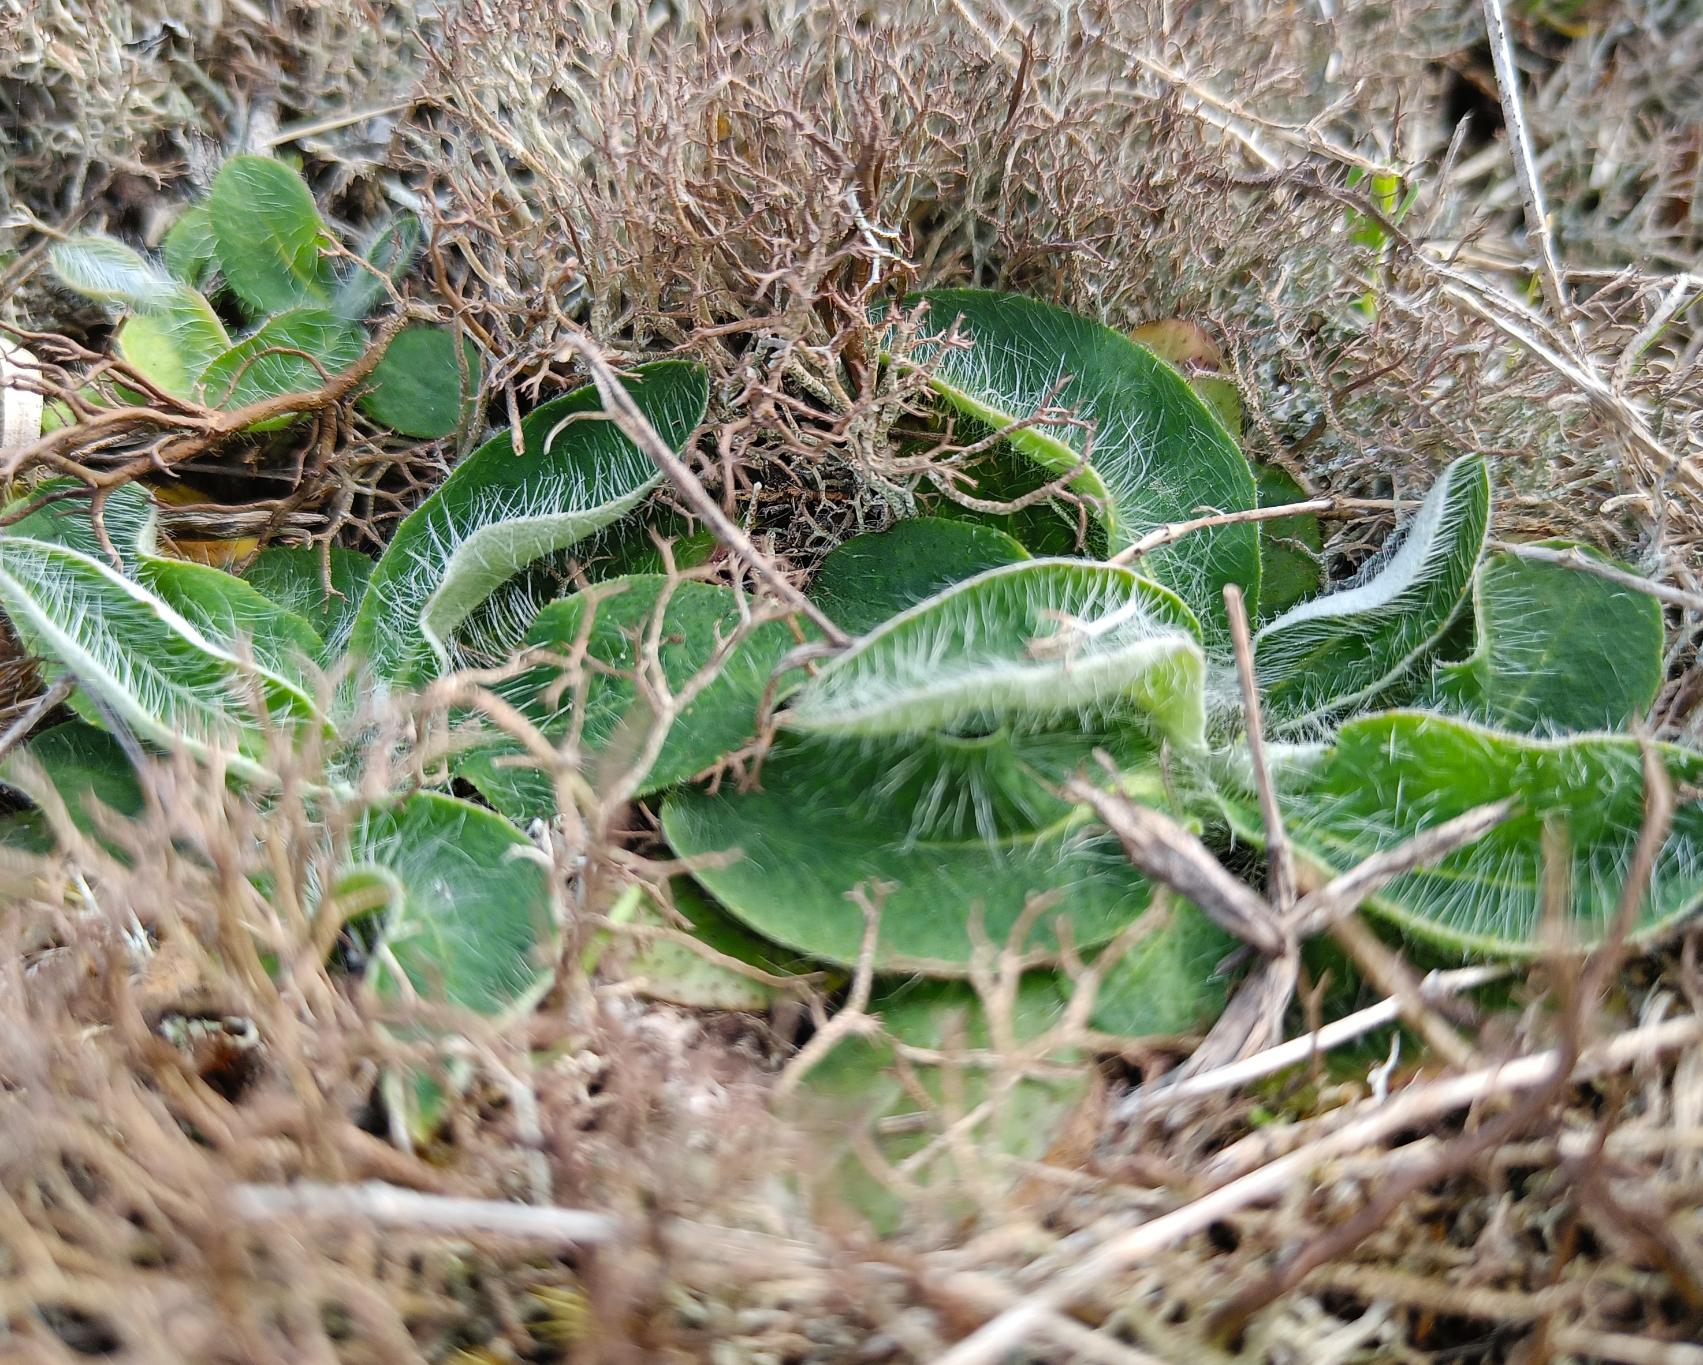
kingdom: Plantae
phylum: Tracheophyta
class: Magnoliopsida
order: Asterales
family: Asteraceae
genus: Pilosella
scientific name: Pilosella officinarum
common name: Håret høgeurt
